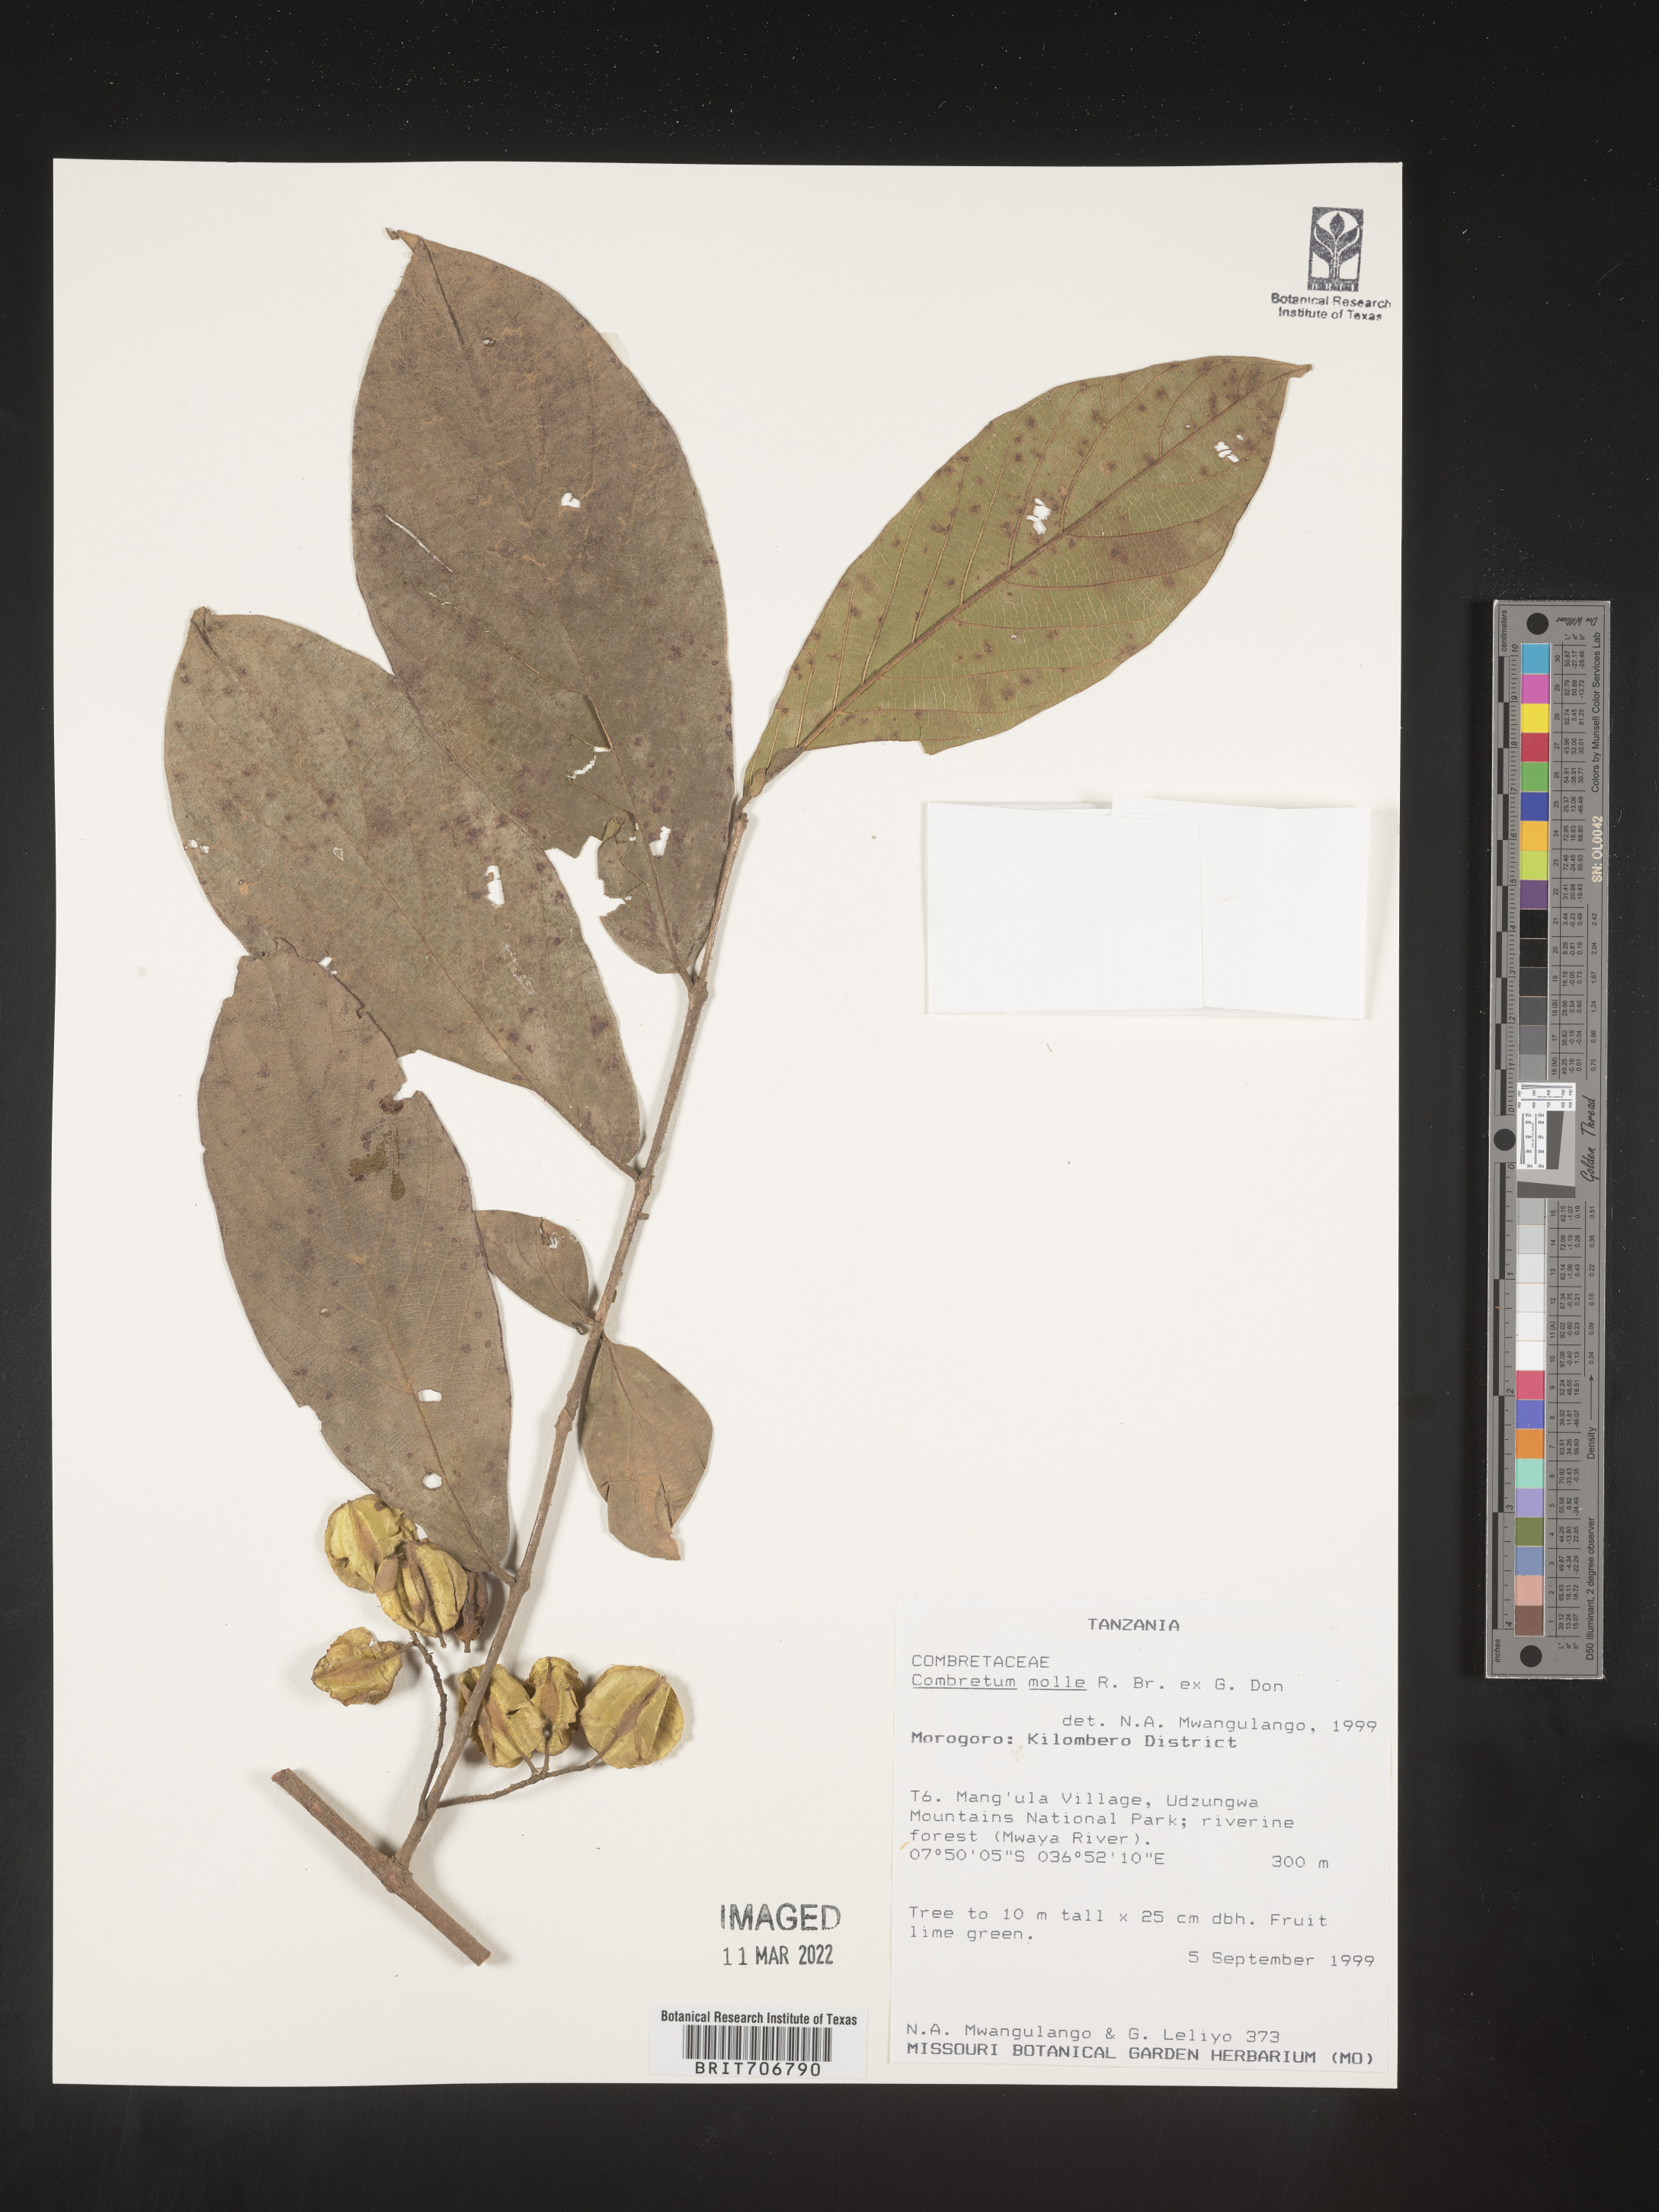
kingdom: Plantae
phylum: Tracheophyta
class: Magnoliopsida
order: Myrtales
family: Combretaceae
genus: Combretum
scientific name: Combretum
